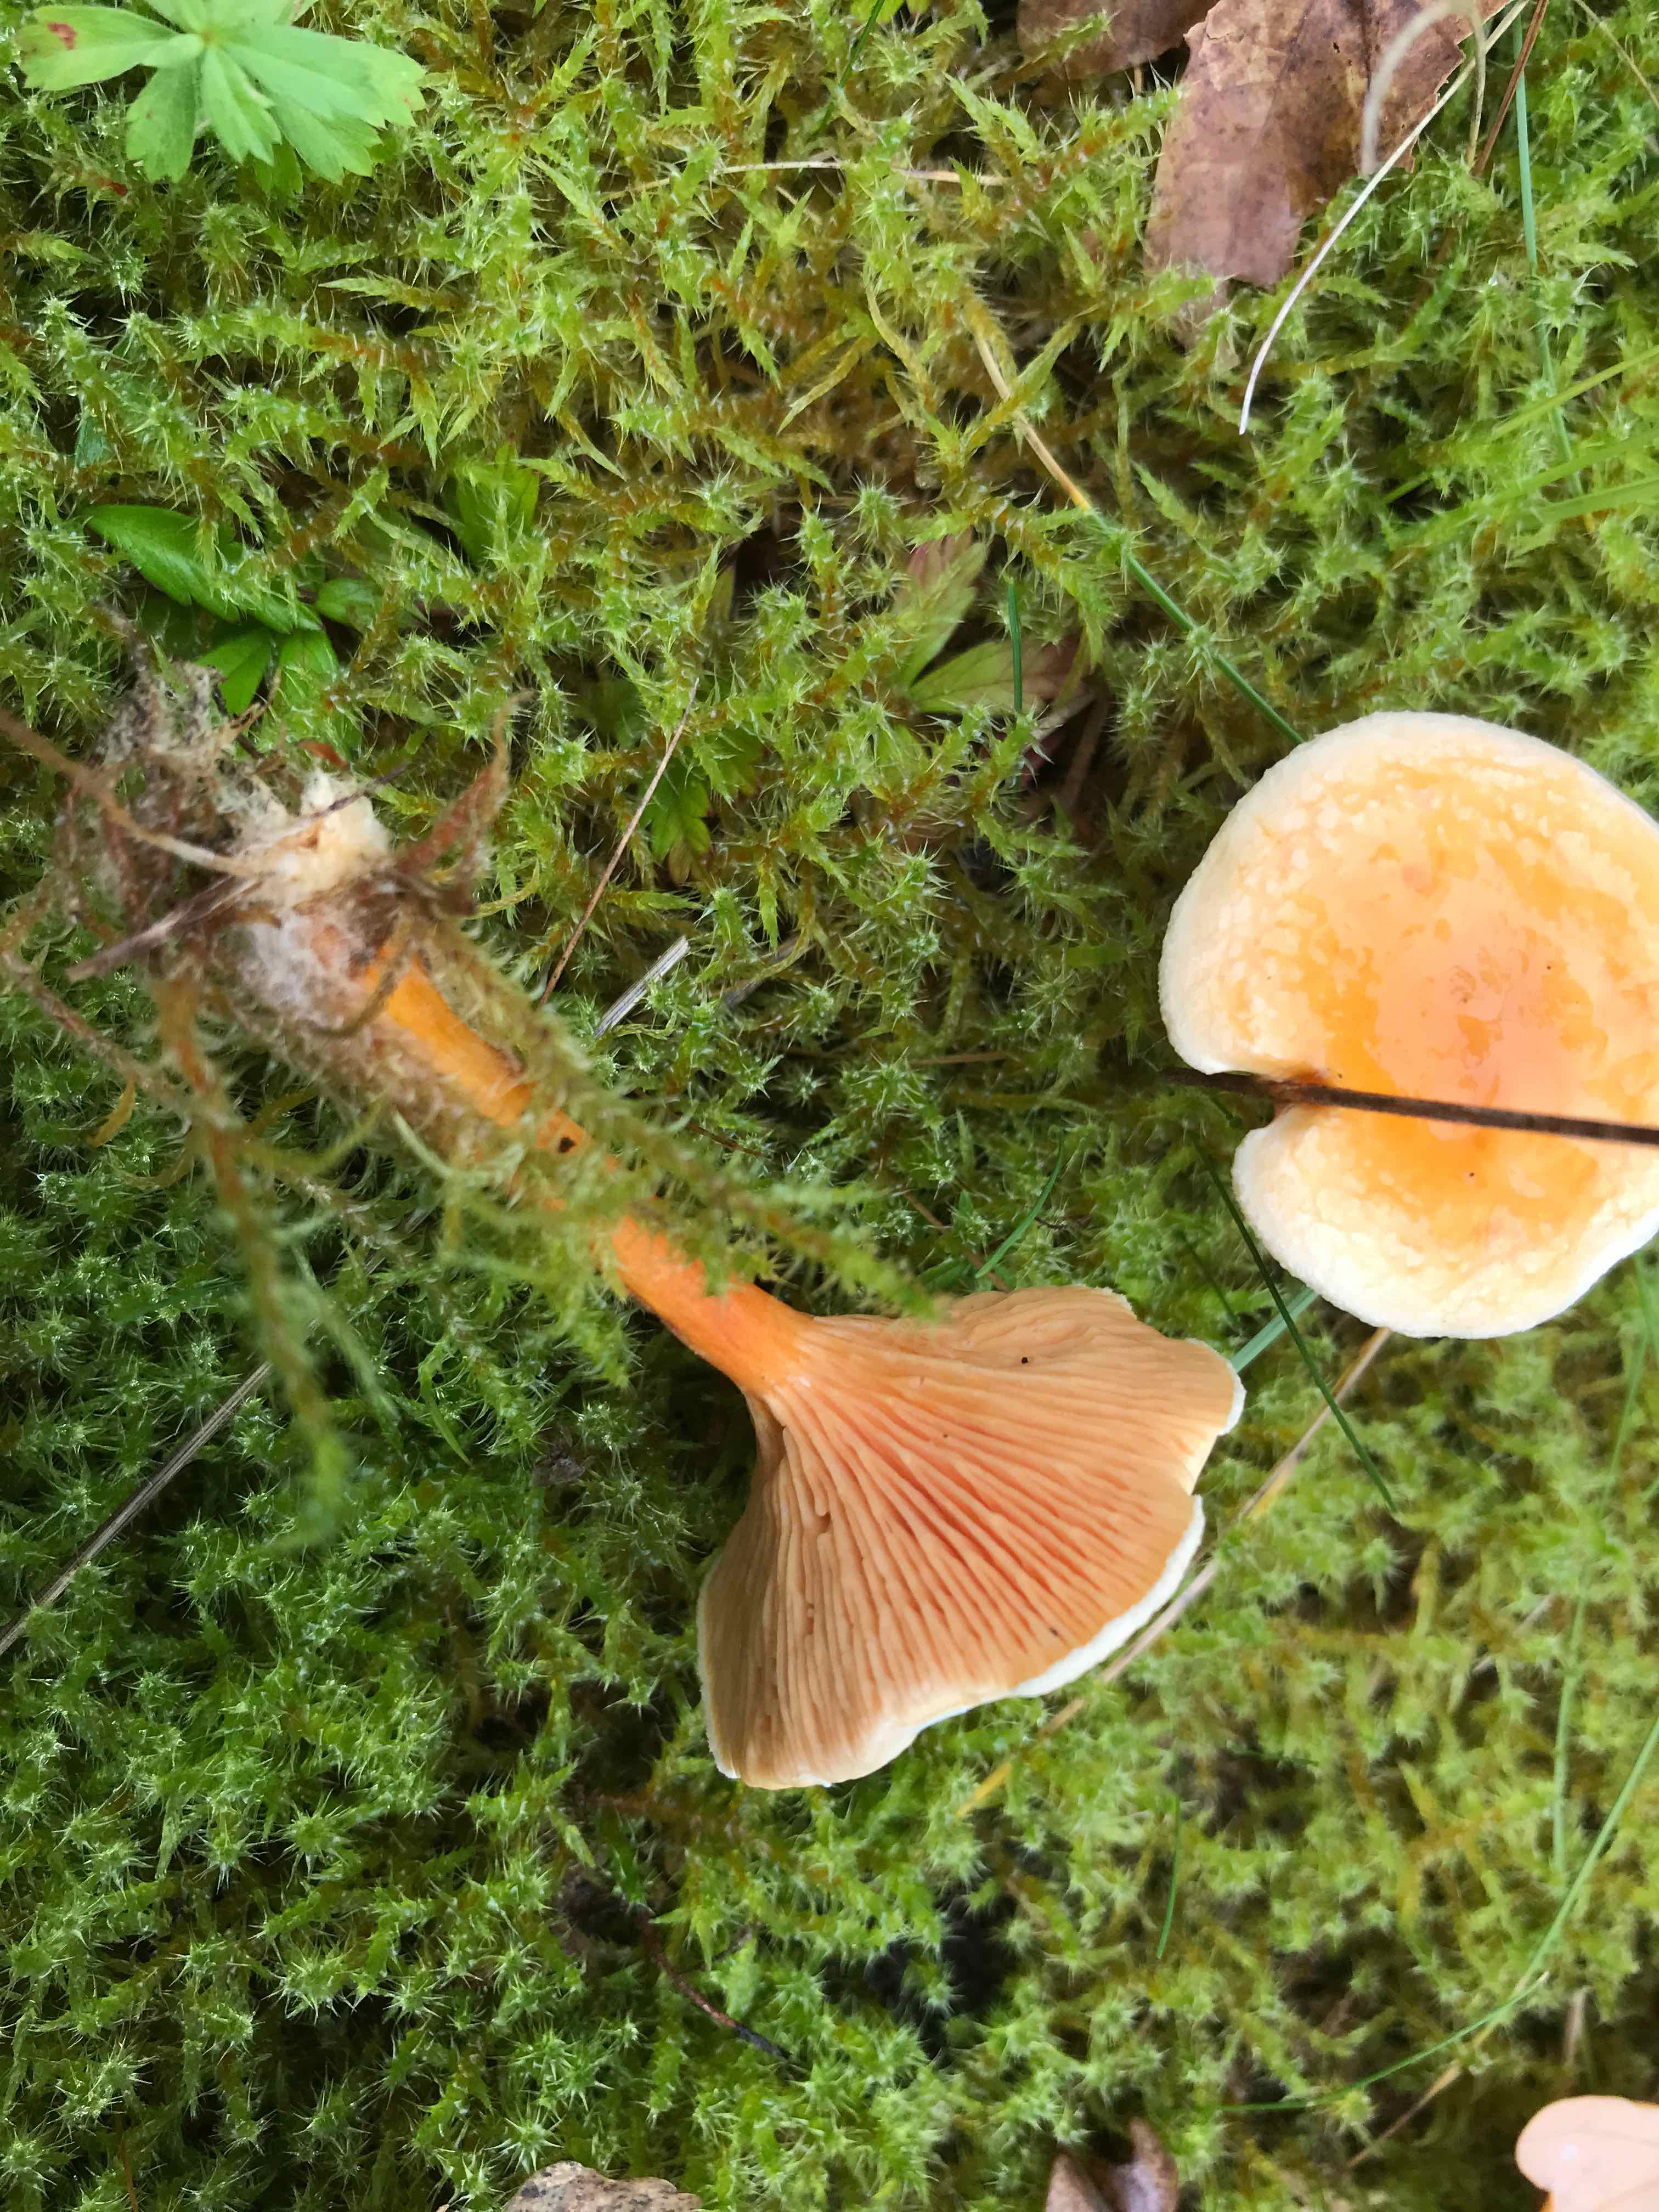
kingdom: Fungi
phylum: Basidiomycota
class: Agaricomycetes
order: Boletales
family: Hygrophoropsidaceae
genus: Hygrophoropsis
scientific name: Hygrophoropsis aurantiaca
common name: almindelig orangekantarel
